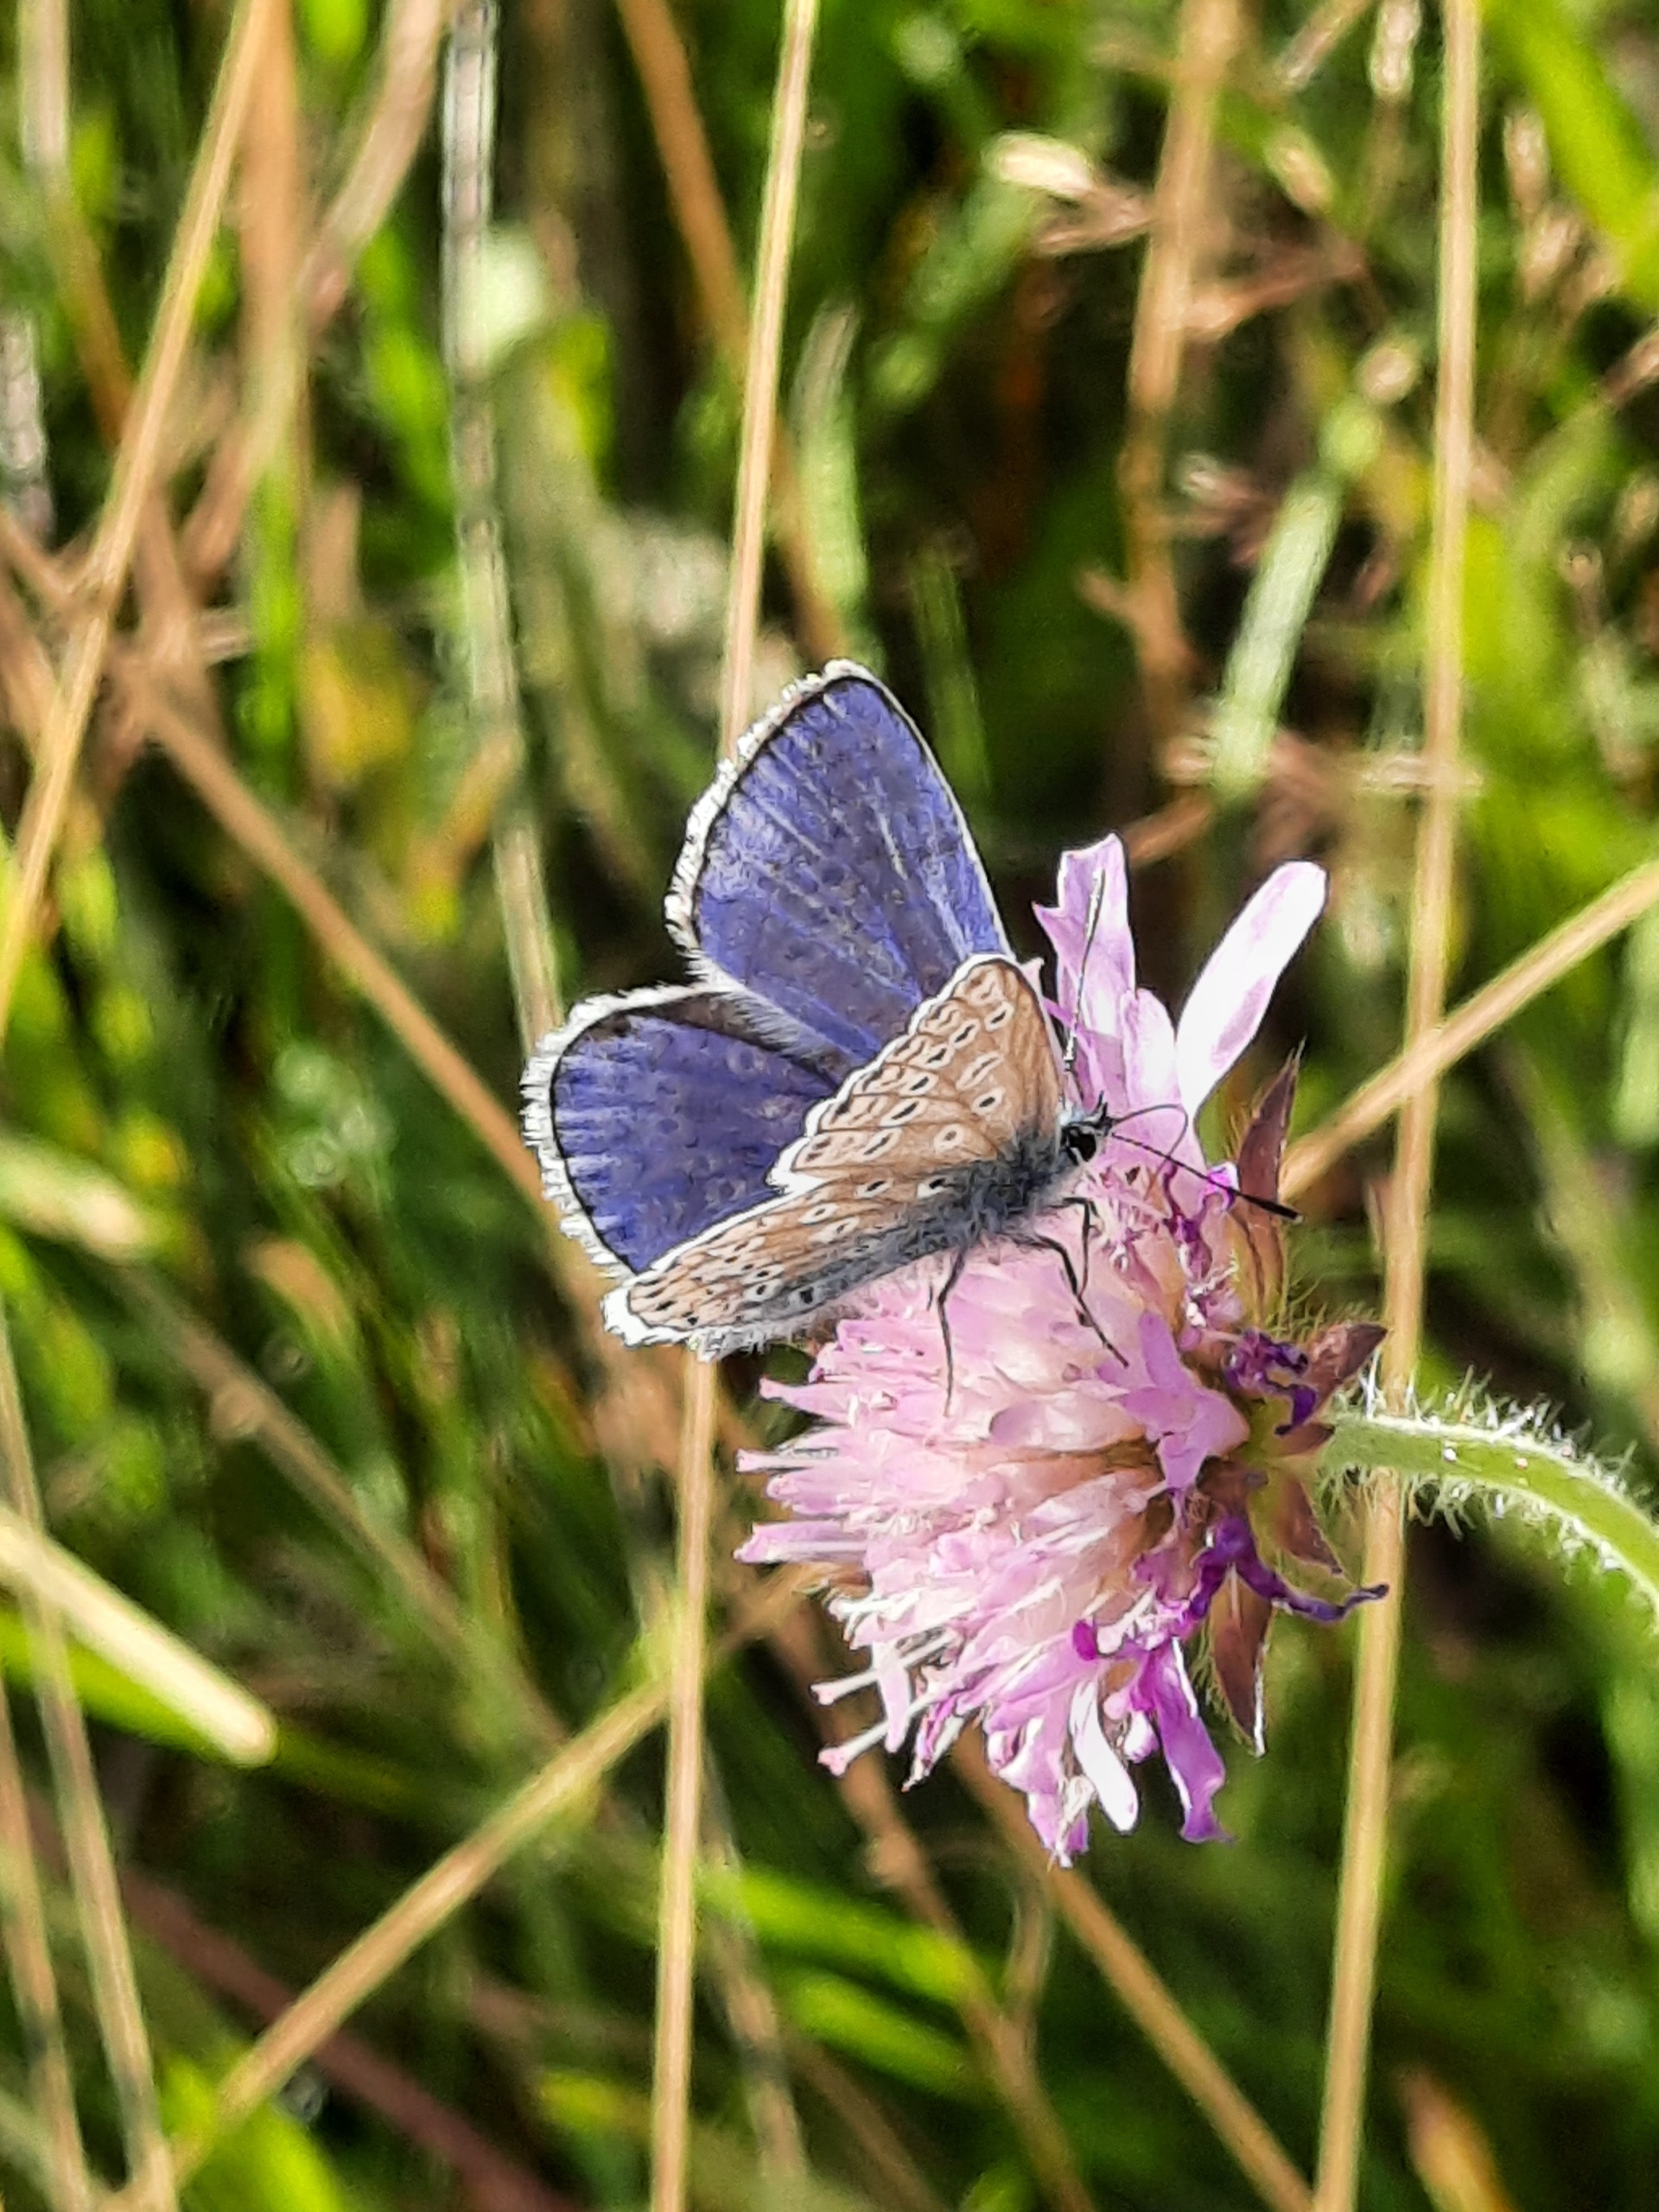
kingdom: Animalia
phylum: Arthropoda
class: Insecta
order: Lepidoptera
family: Lycaenidae
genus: Polyommatus
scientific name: Polyommatus icarus
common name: Almindelig blåfugl
